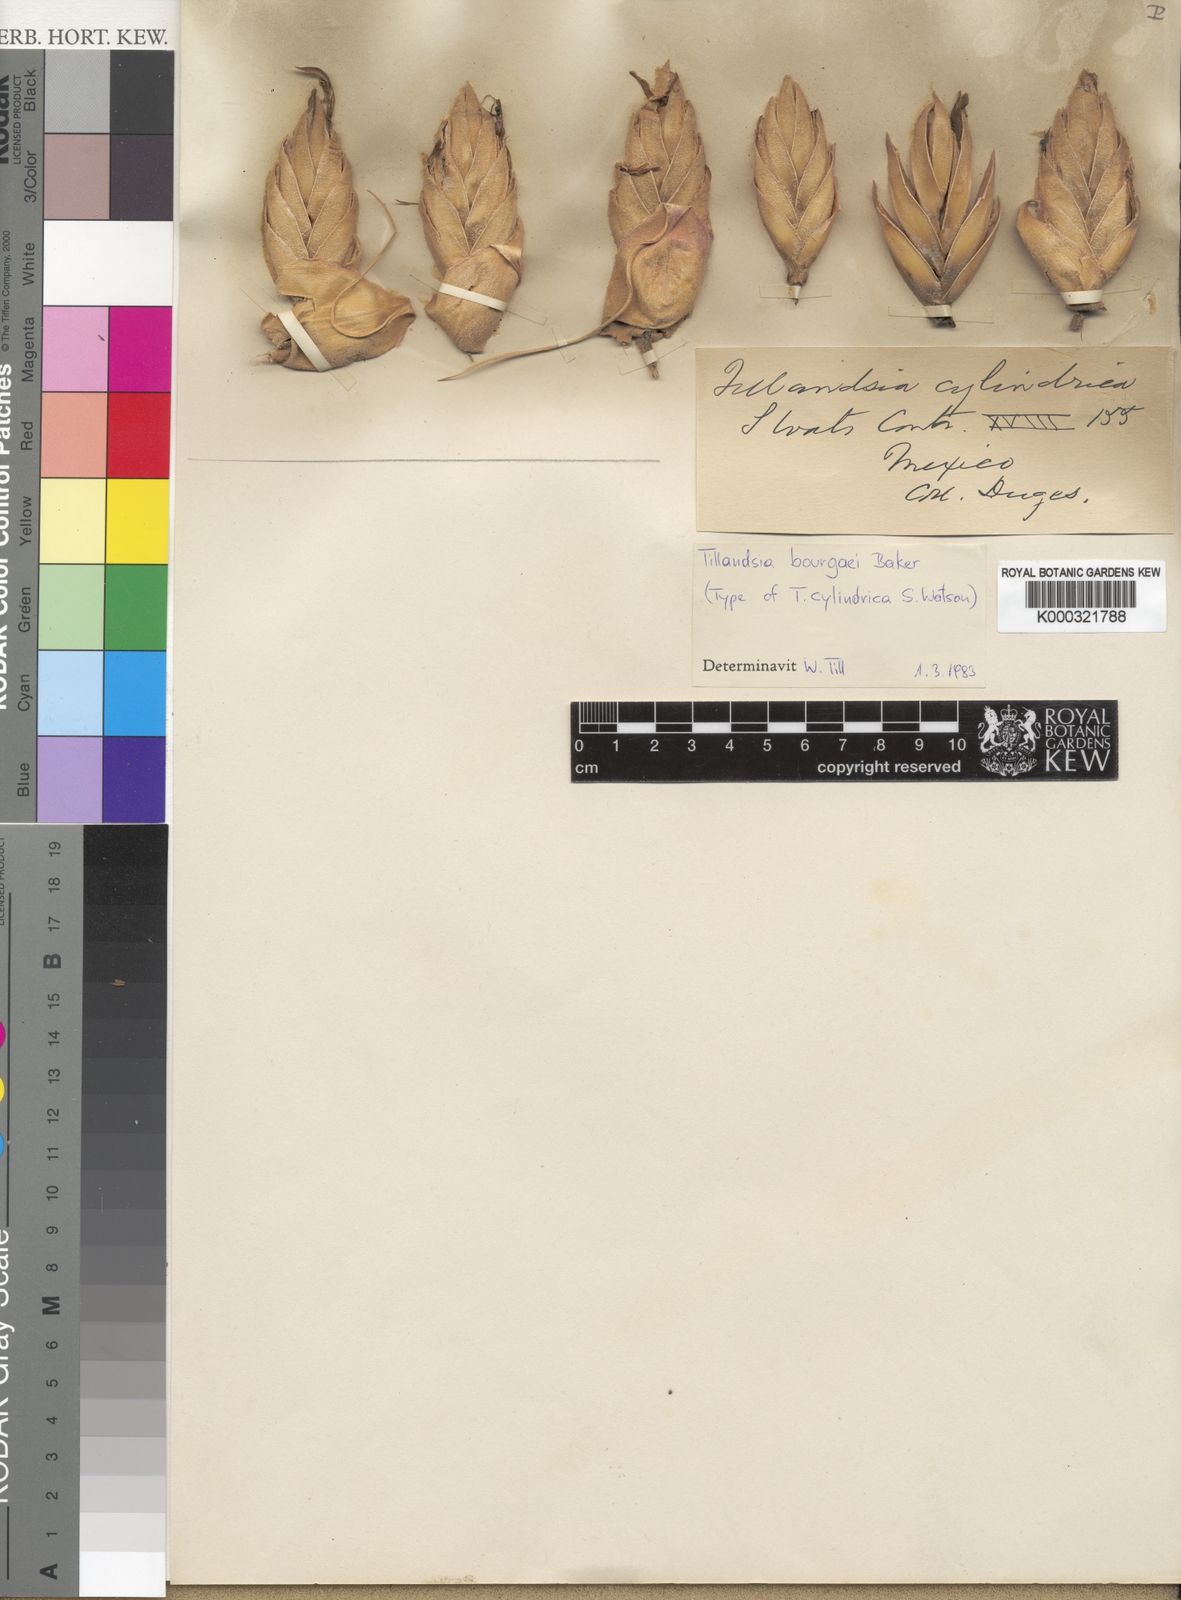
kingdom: Plantae
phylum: Tracheophyta
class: Liliopsida
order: Poales
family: Bromeliaceae
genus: Tillandsia
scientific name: Tillandsia bourgaei
